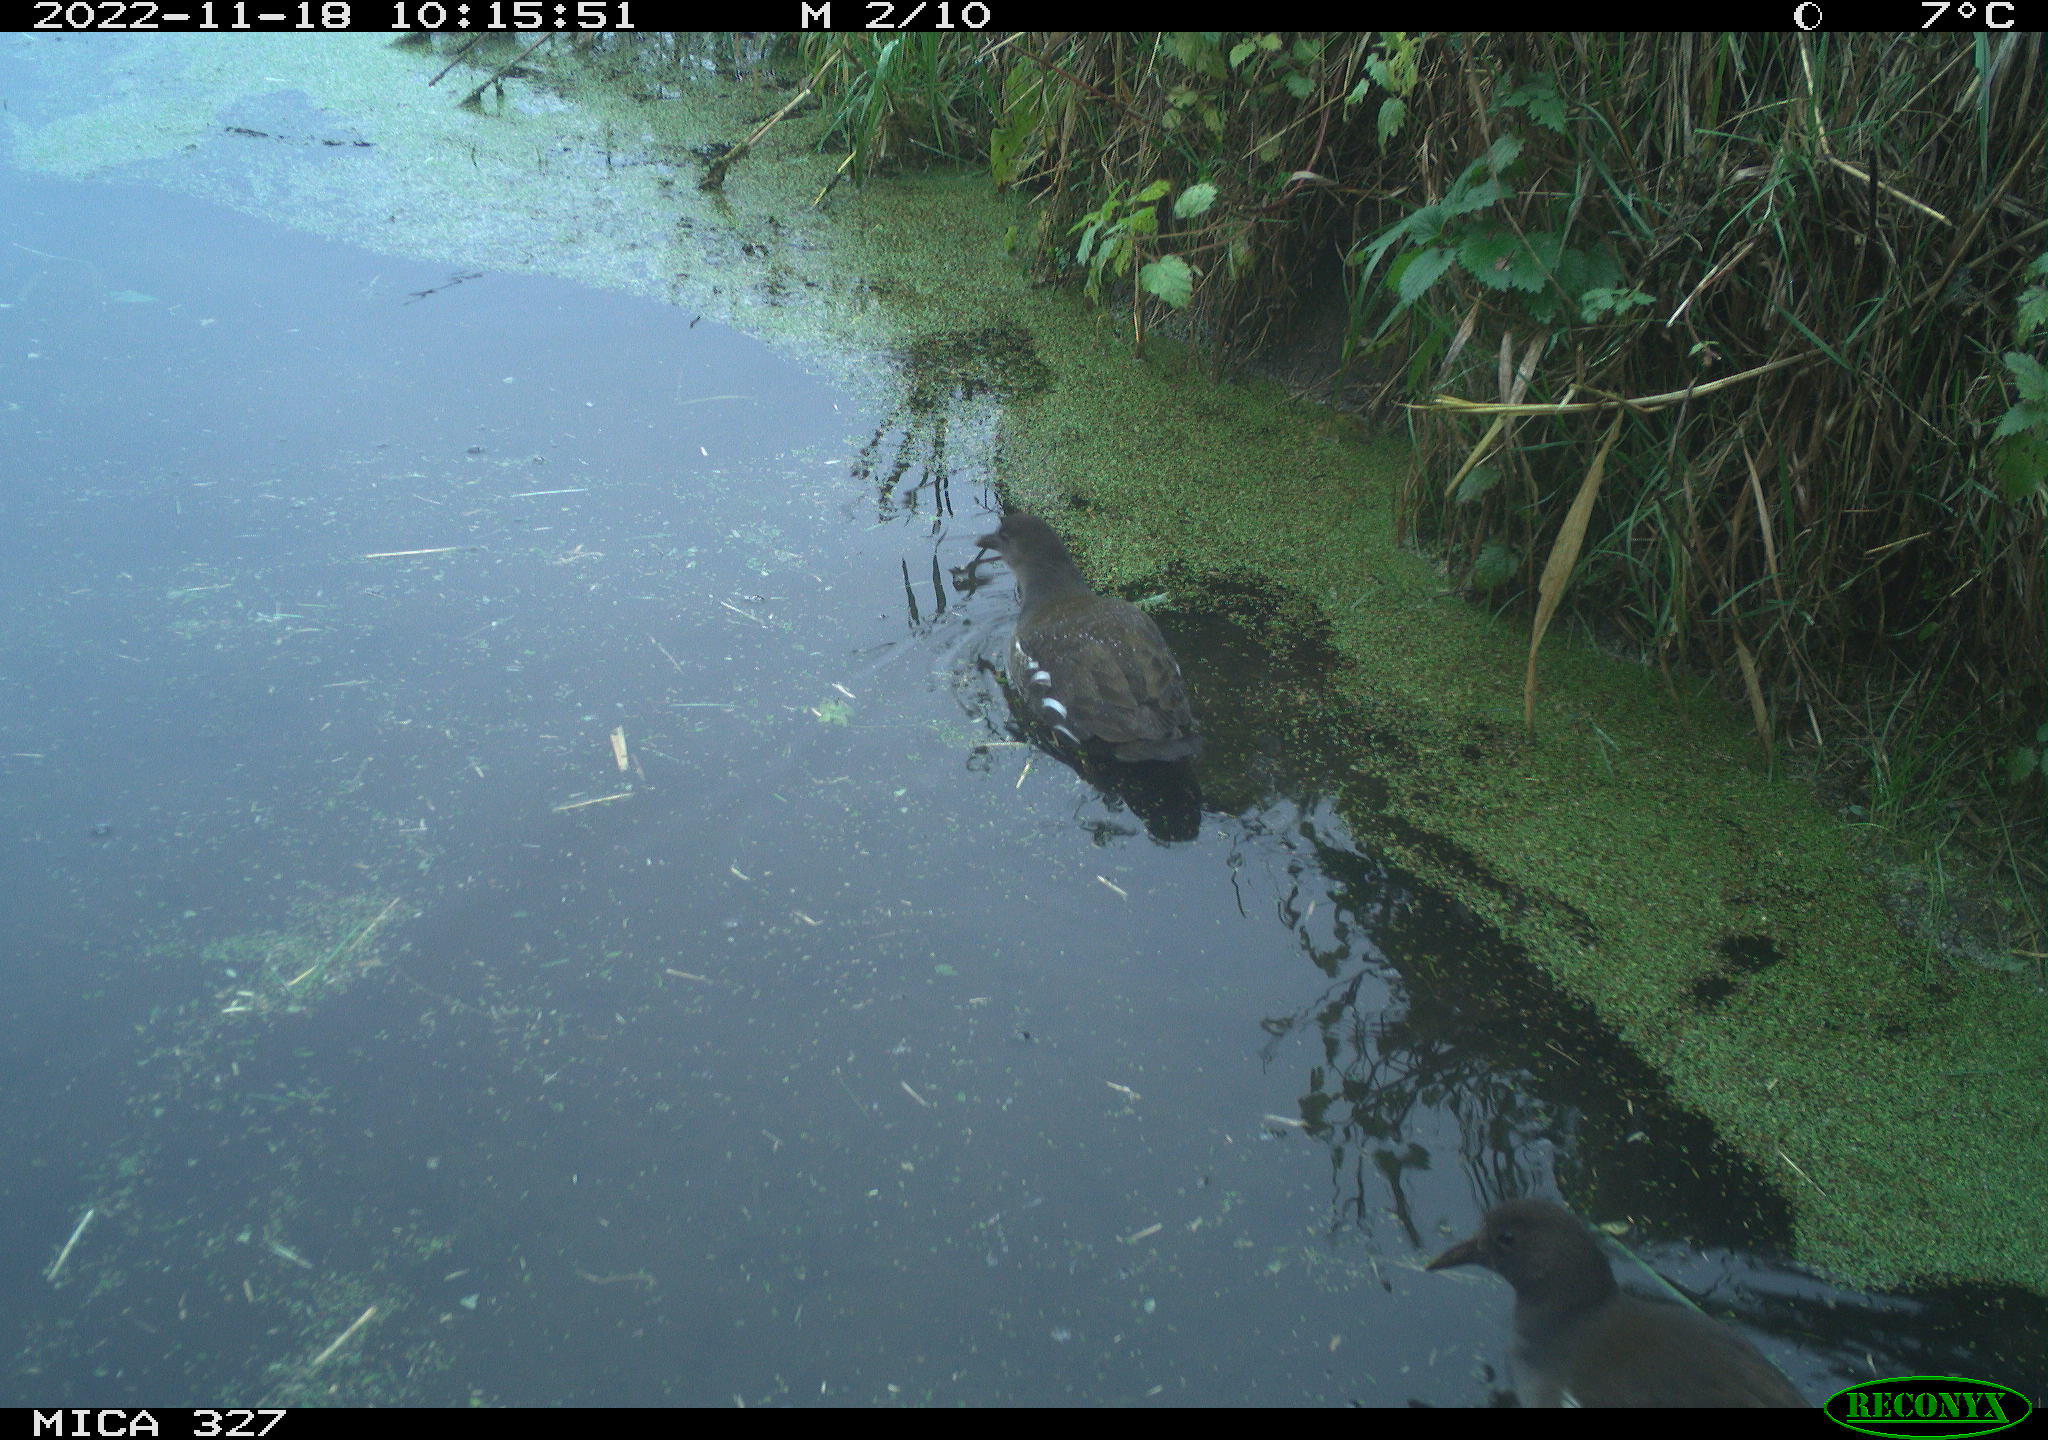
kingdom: Animalia
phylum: Chordata
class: Aves
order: Gruiformes
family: Rallidae
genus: Gallinula
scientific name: Gallinula chloropus
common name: Common moorhen
